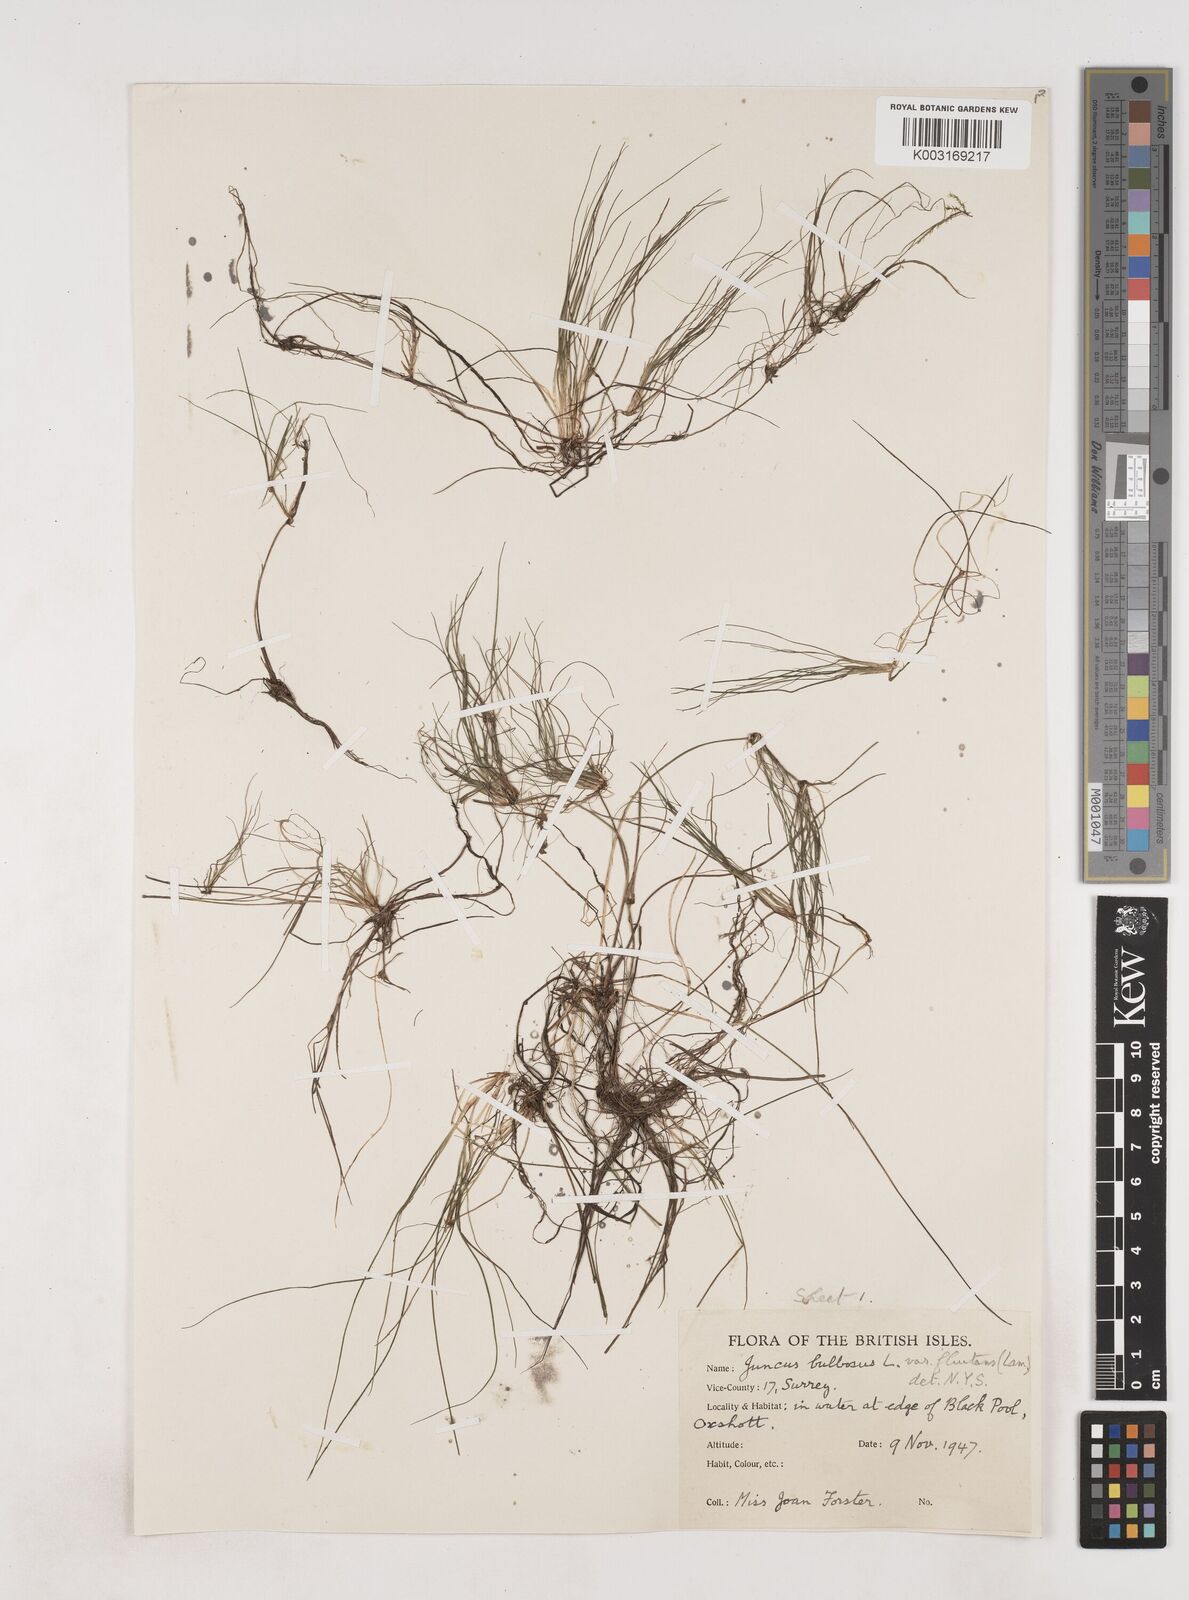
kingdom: Plantae
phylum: Tracheophyta
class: Liliopsida
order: Poales
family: Juncaceae
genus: Juncus
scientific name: Juncus bulbosus
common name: Bulbous rush
